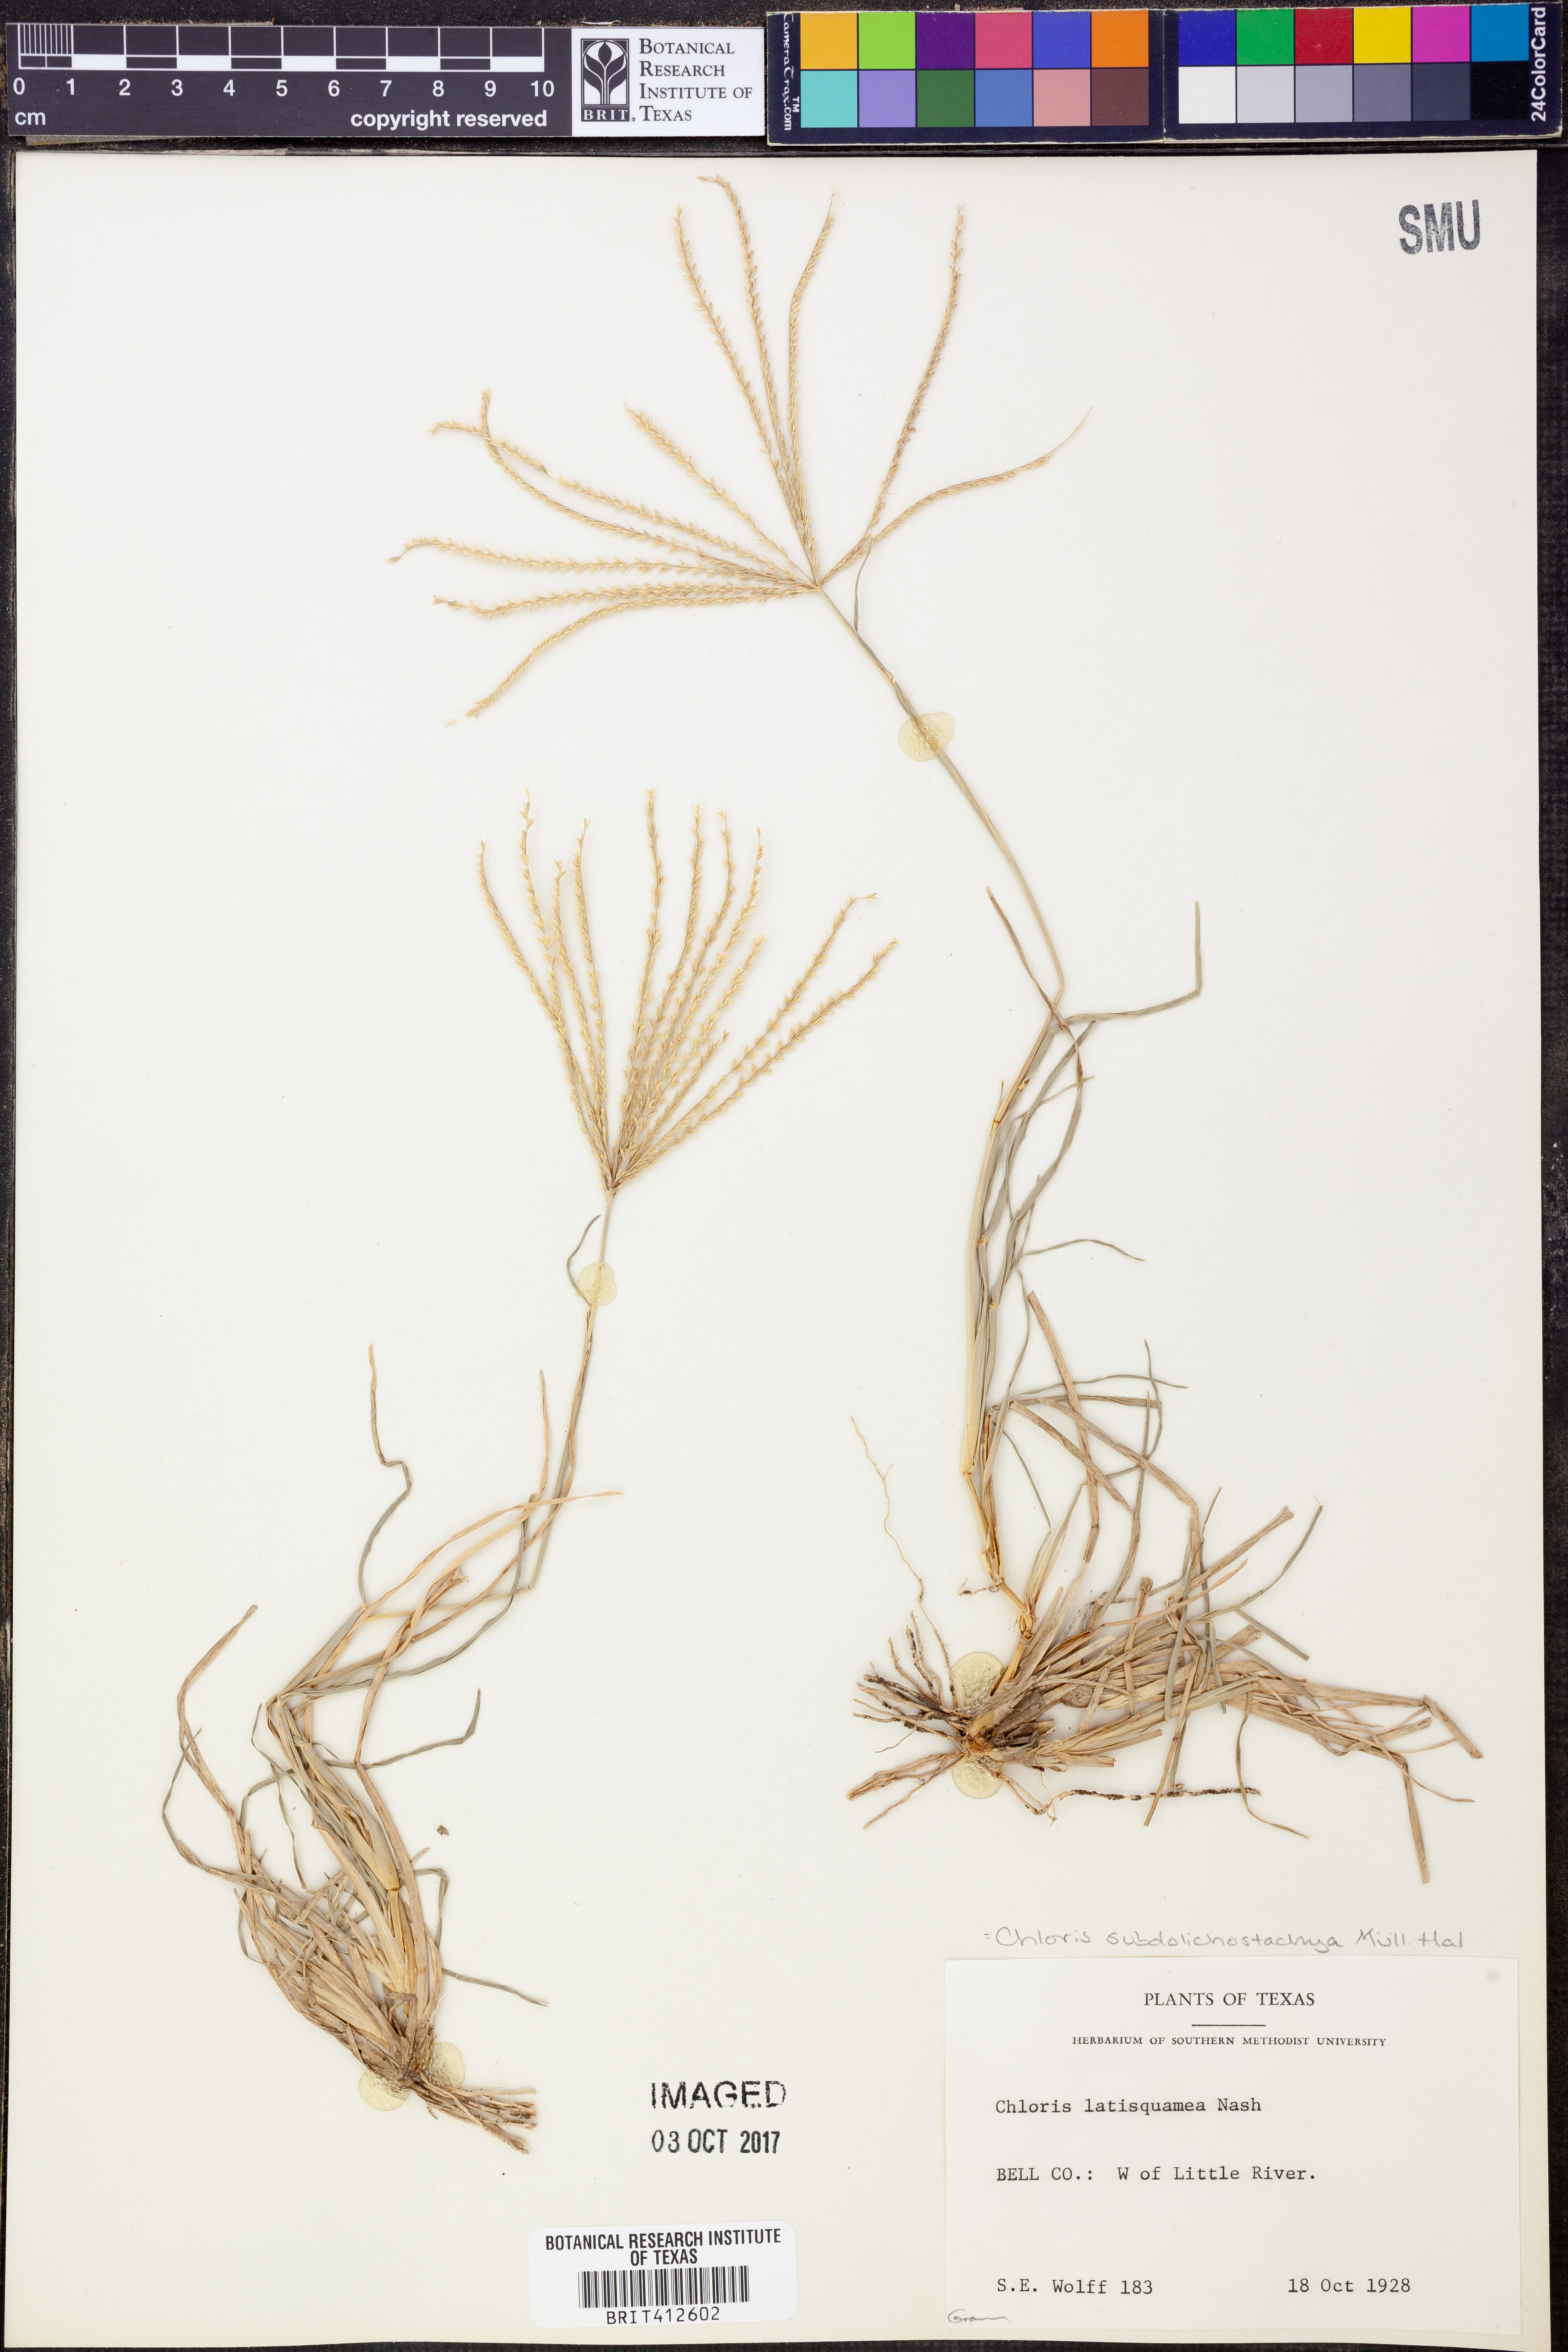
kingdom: Plantae
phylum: Tracheophyta
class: Liliopsida
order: Poales
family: Poaceae
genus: Chloris
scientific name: Chloris subdolichostachya
